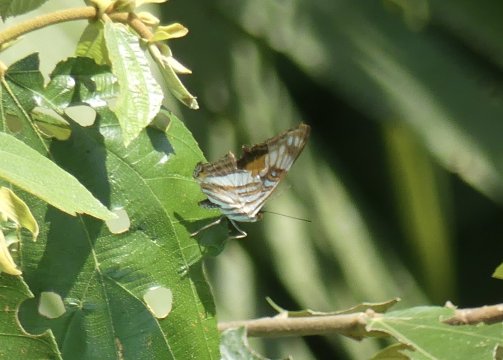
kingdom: Animalia
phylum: Arthropoda
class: Insecta
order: Lepidoptera
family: Nymphalidae
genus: Limenitis
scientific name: Limenitis iphiclus
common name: Iphicleola Sister
